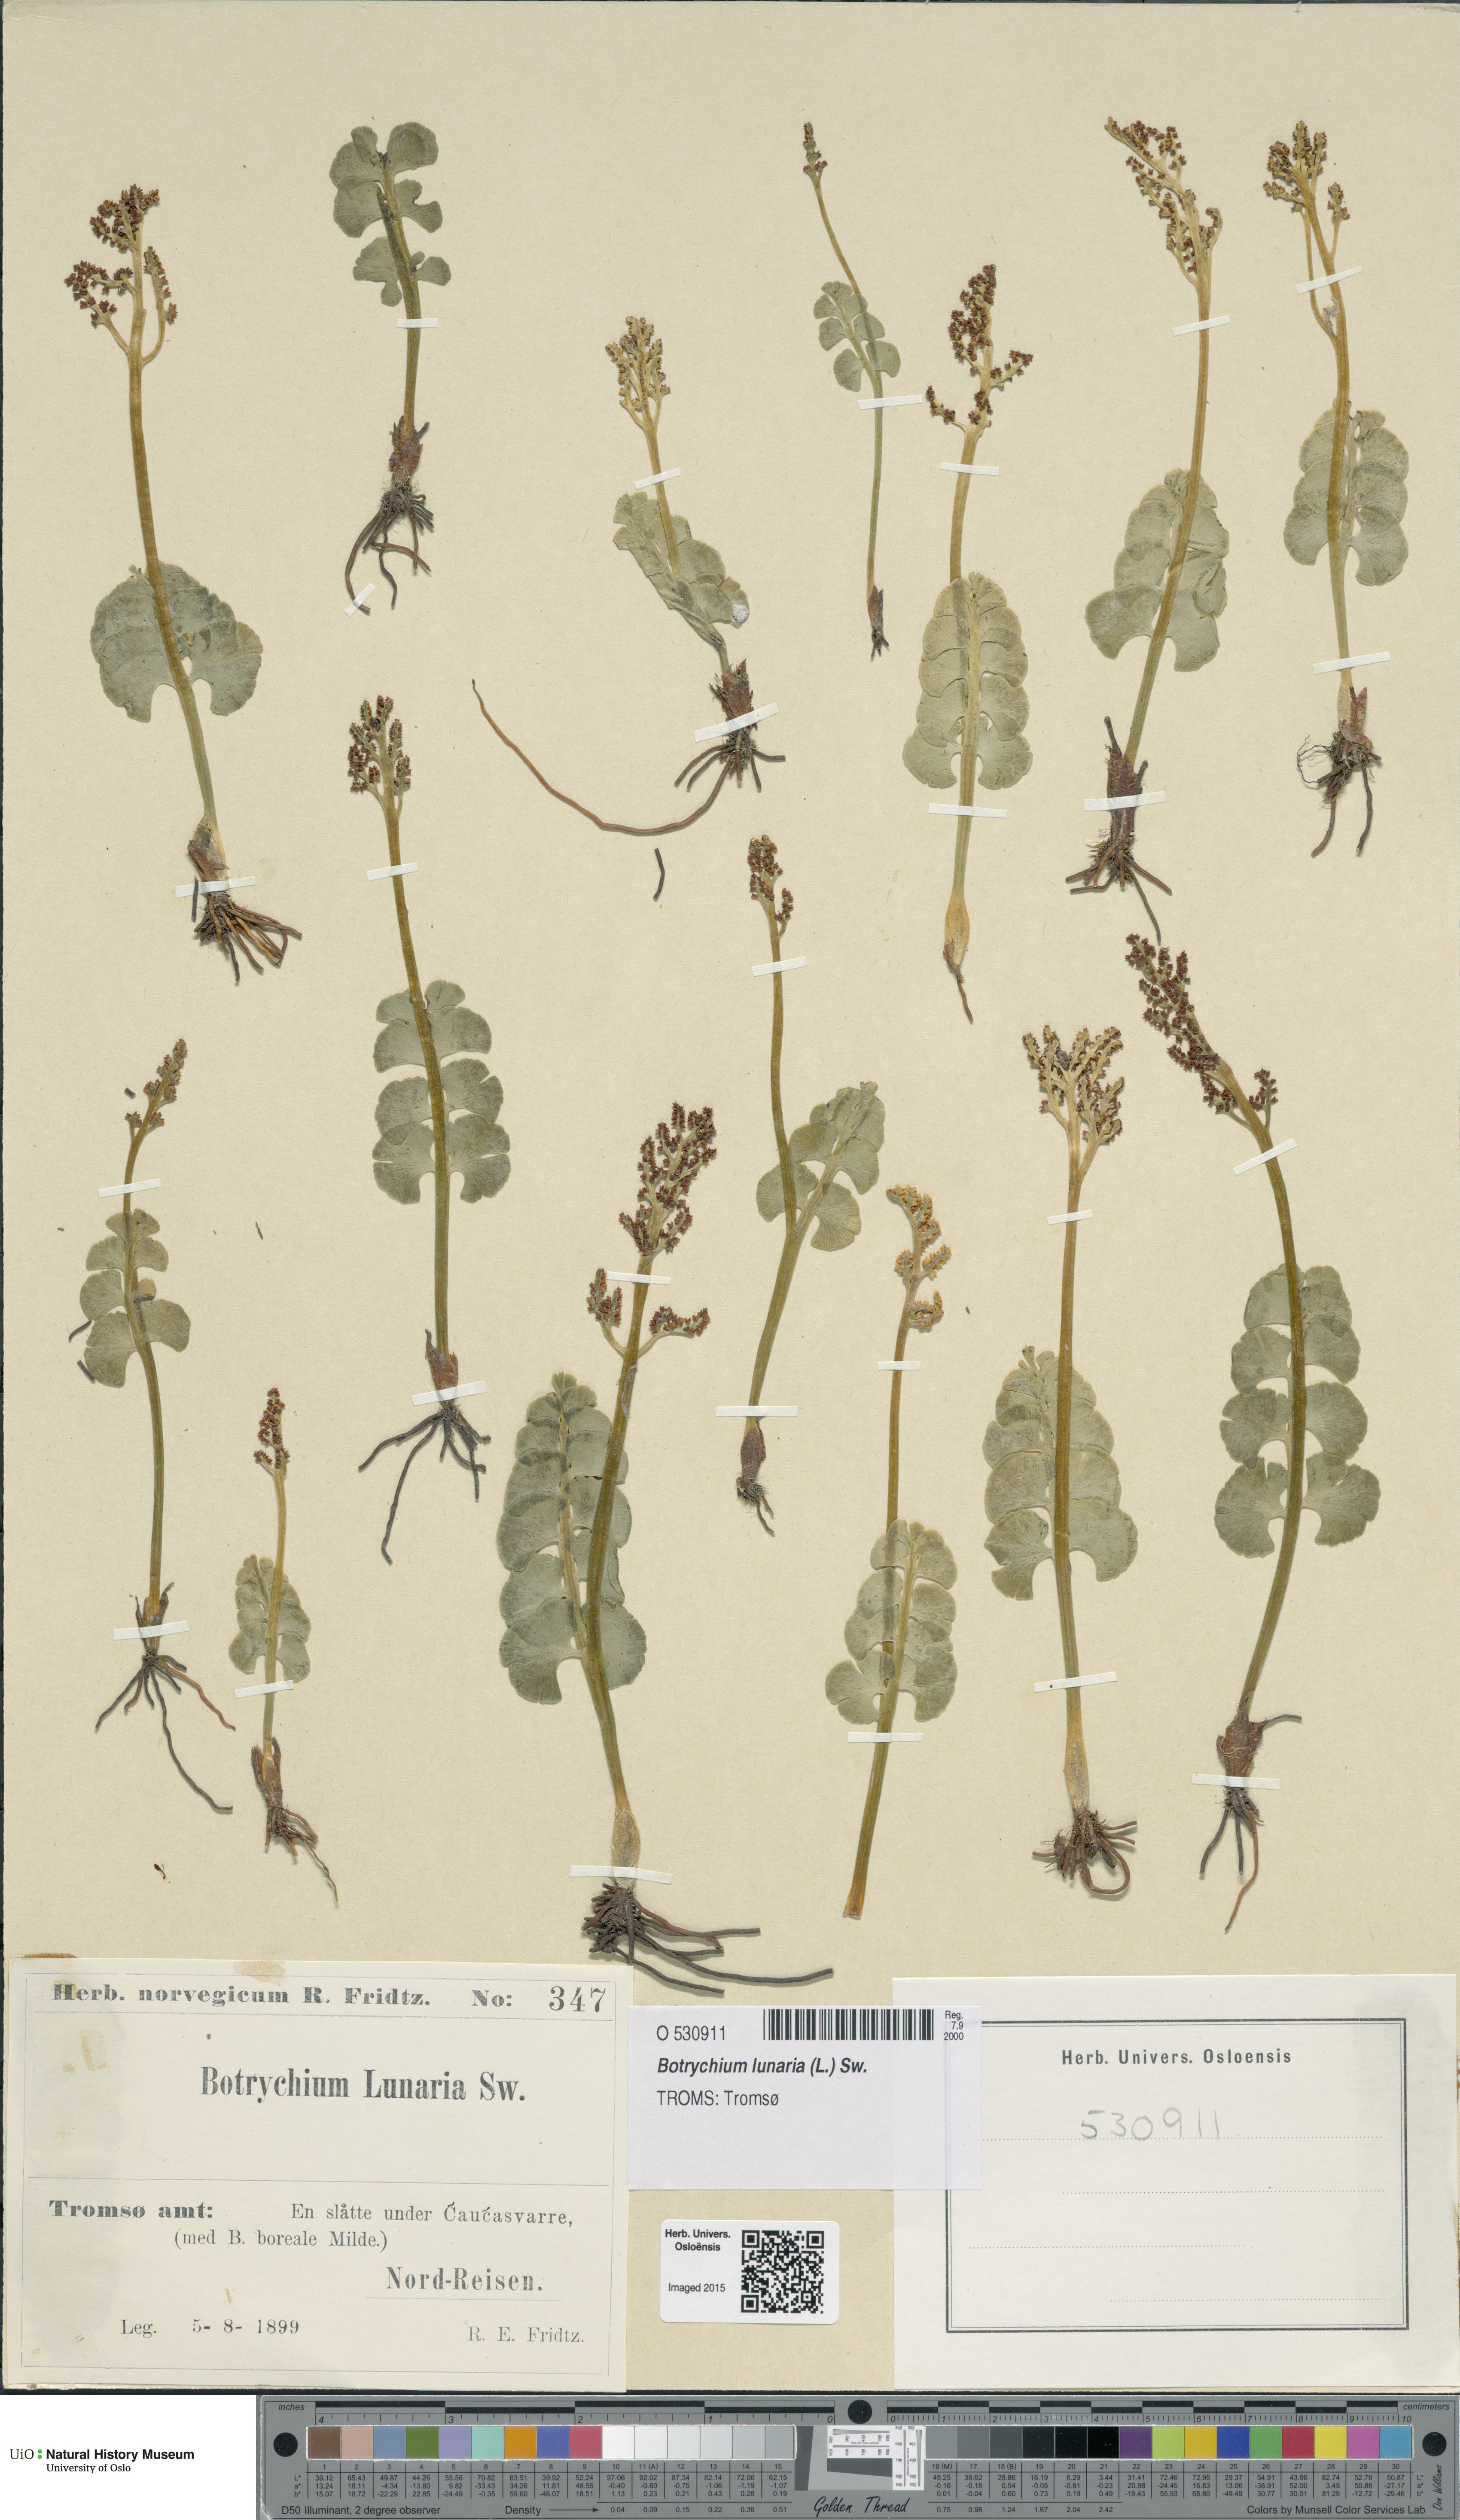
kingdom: Plantae
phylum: Tracheophyta
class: Polypodiopsida
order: Ophioglossales
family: Ophioglossaceae
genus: Botrychium
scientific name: Botrychium lunaria
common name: Moonwort
